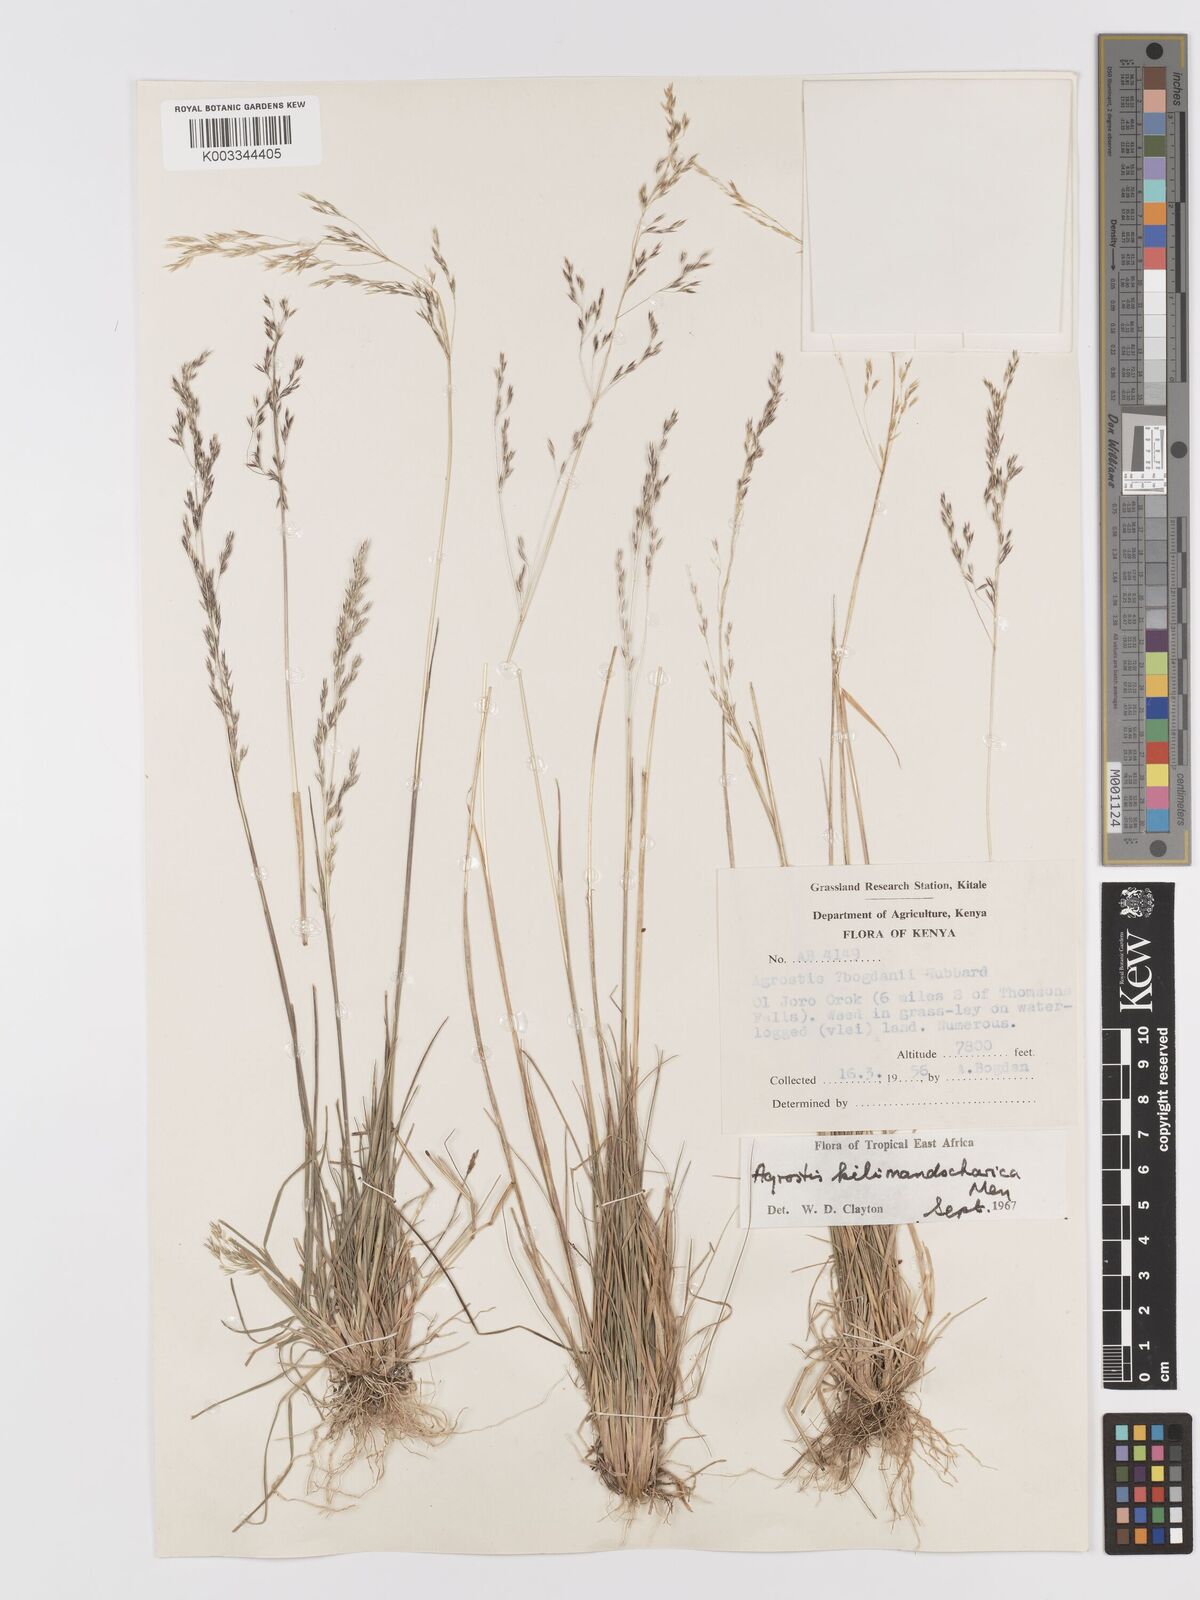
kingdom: Plantae
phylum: Tracheophyta
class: Liliopsida
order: Poales
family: Poaceae
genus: Agrostis
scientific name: Agrostis kilimandscharica
